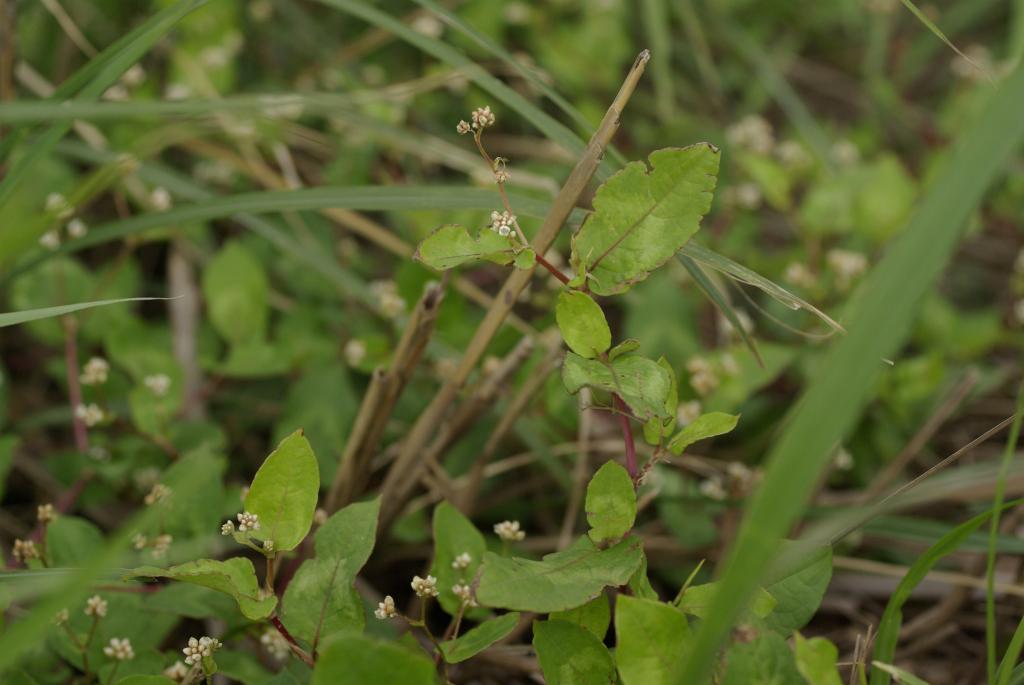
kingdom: Plantae
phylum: Tracheophyta
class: Magnoliopsida
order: Caryophyllales
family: Polygonaceae
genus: Persicaria
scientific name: Persicaria chinensis
